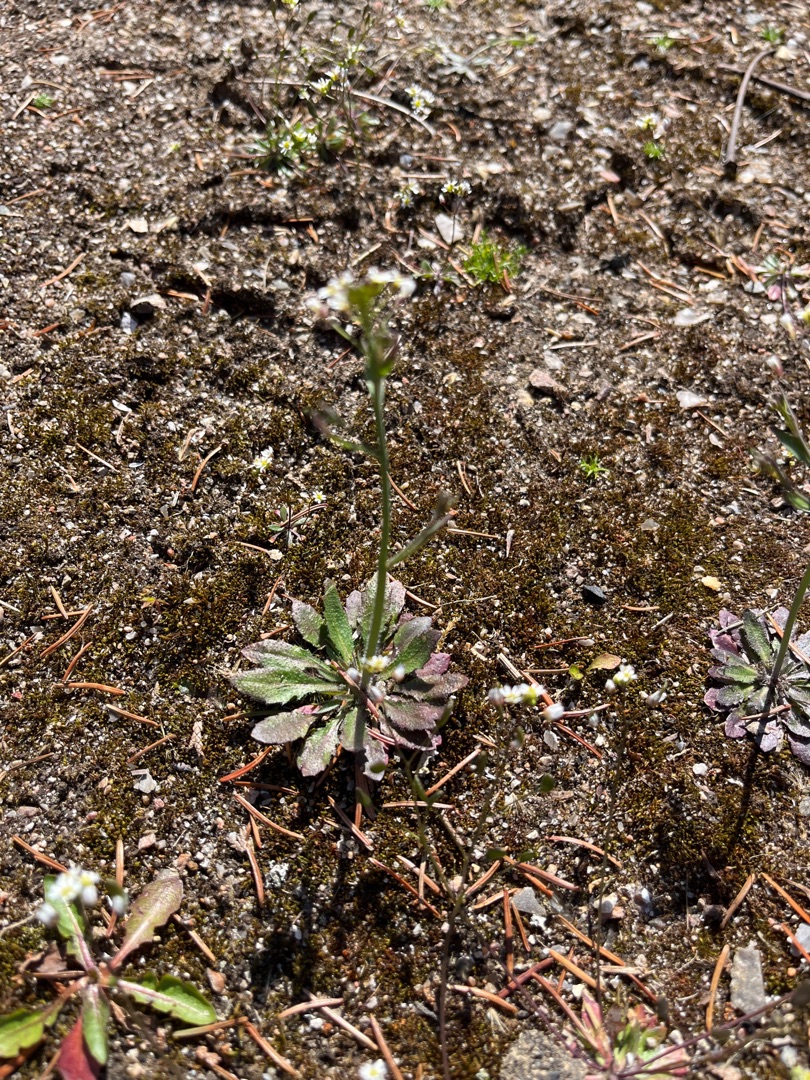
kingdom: Plantae
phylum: Tracheophyta
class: Magnoliopsida
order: Brassicales
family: Brassicaceae
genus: Draba
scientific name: Draba verna
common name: Vår-gæslingeblomst
